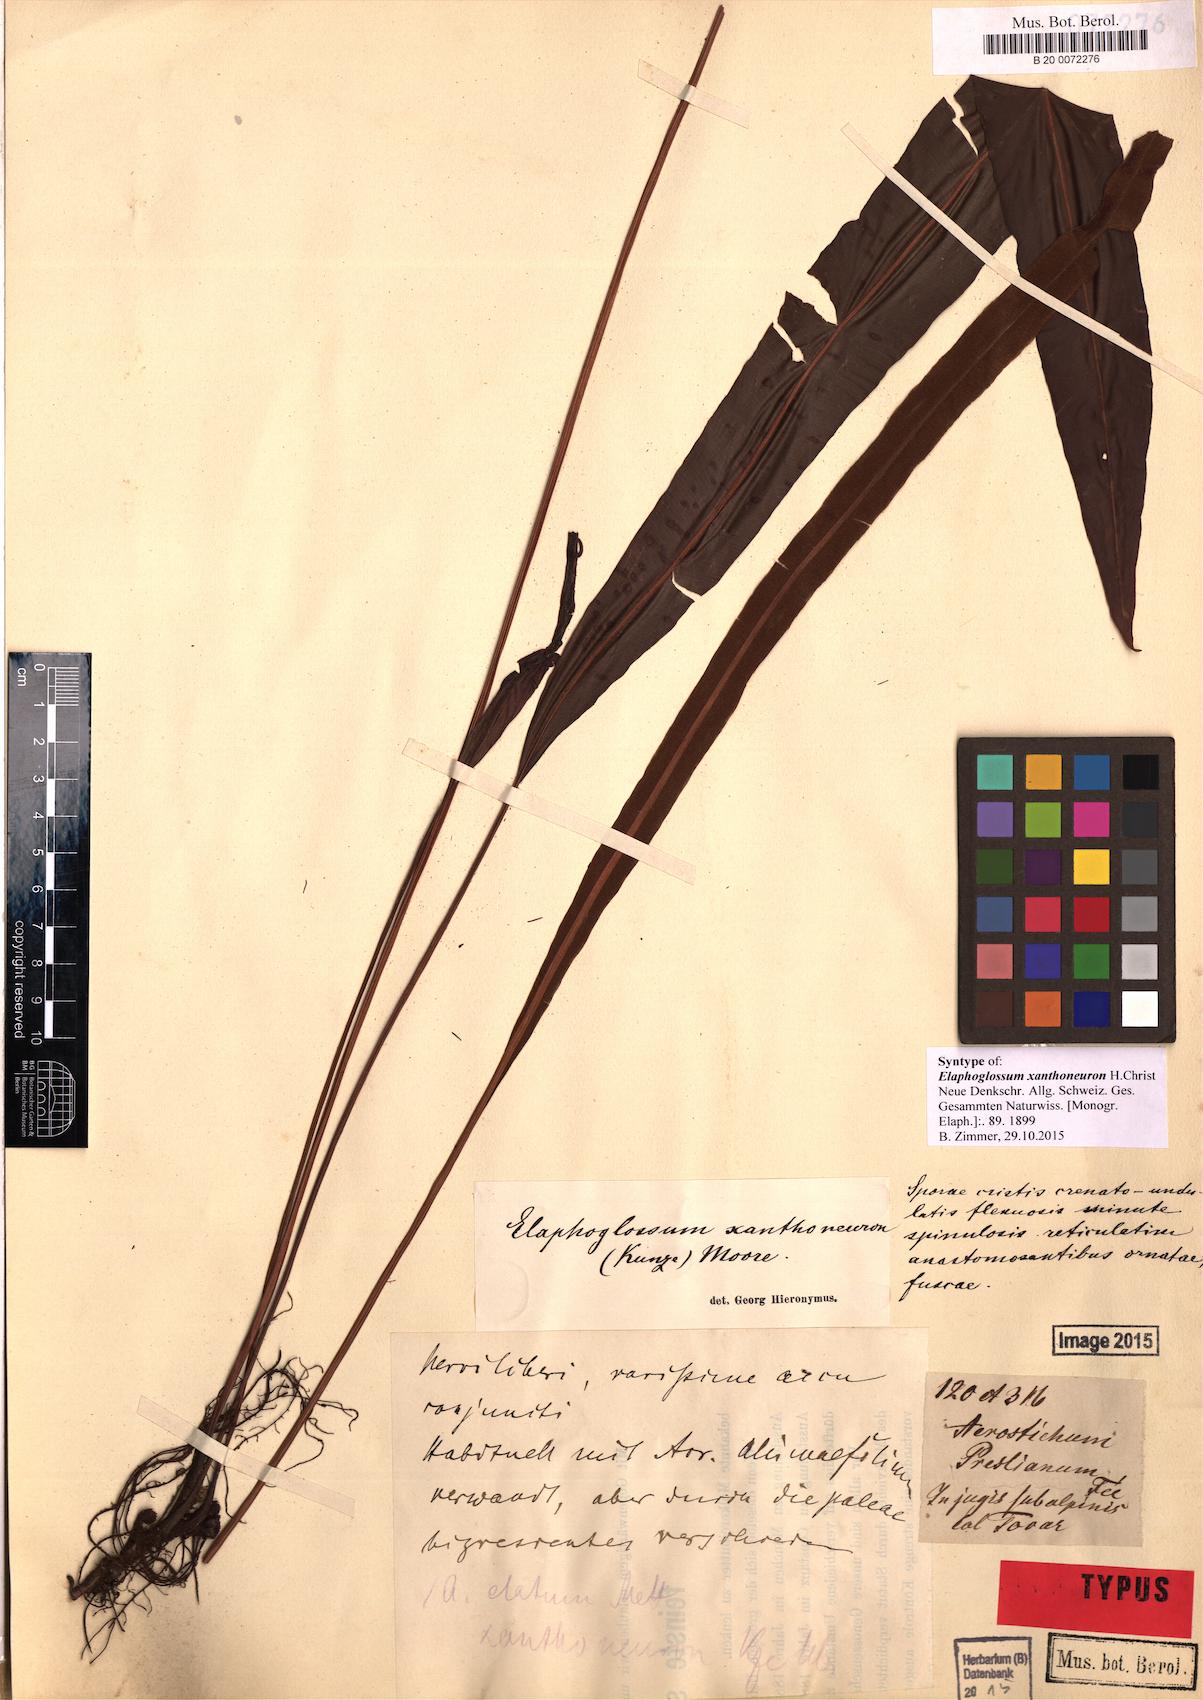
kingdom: Plantae
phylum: Tracheophyta
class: Polypodiopsida
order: Polypodiales
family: Dryopteridaceae
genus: Elaphoglossum
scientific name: Elaphoglossum burchellii
